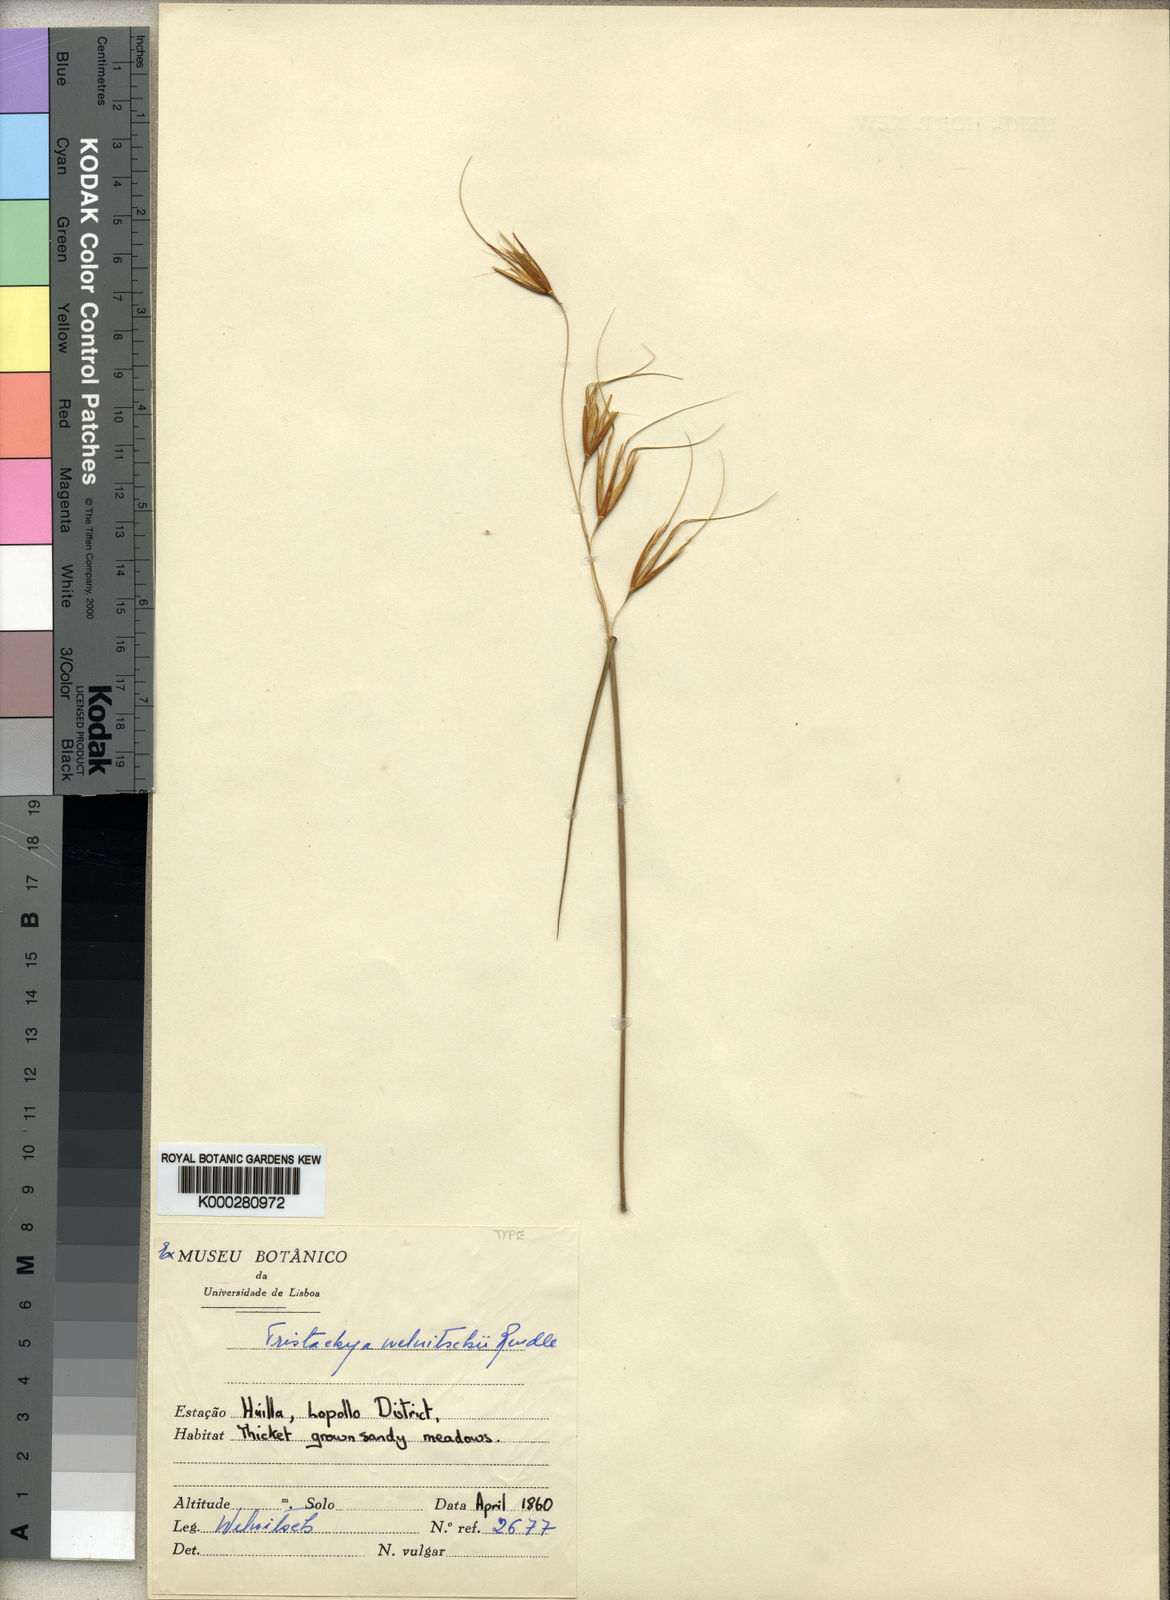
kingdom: Plantae
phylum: Tracheophyta
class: Liliopsida
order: Poales
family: Poaceae
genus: Tristachya
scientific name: Tristachya nodiglumis
